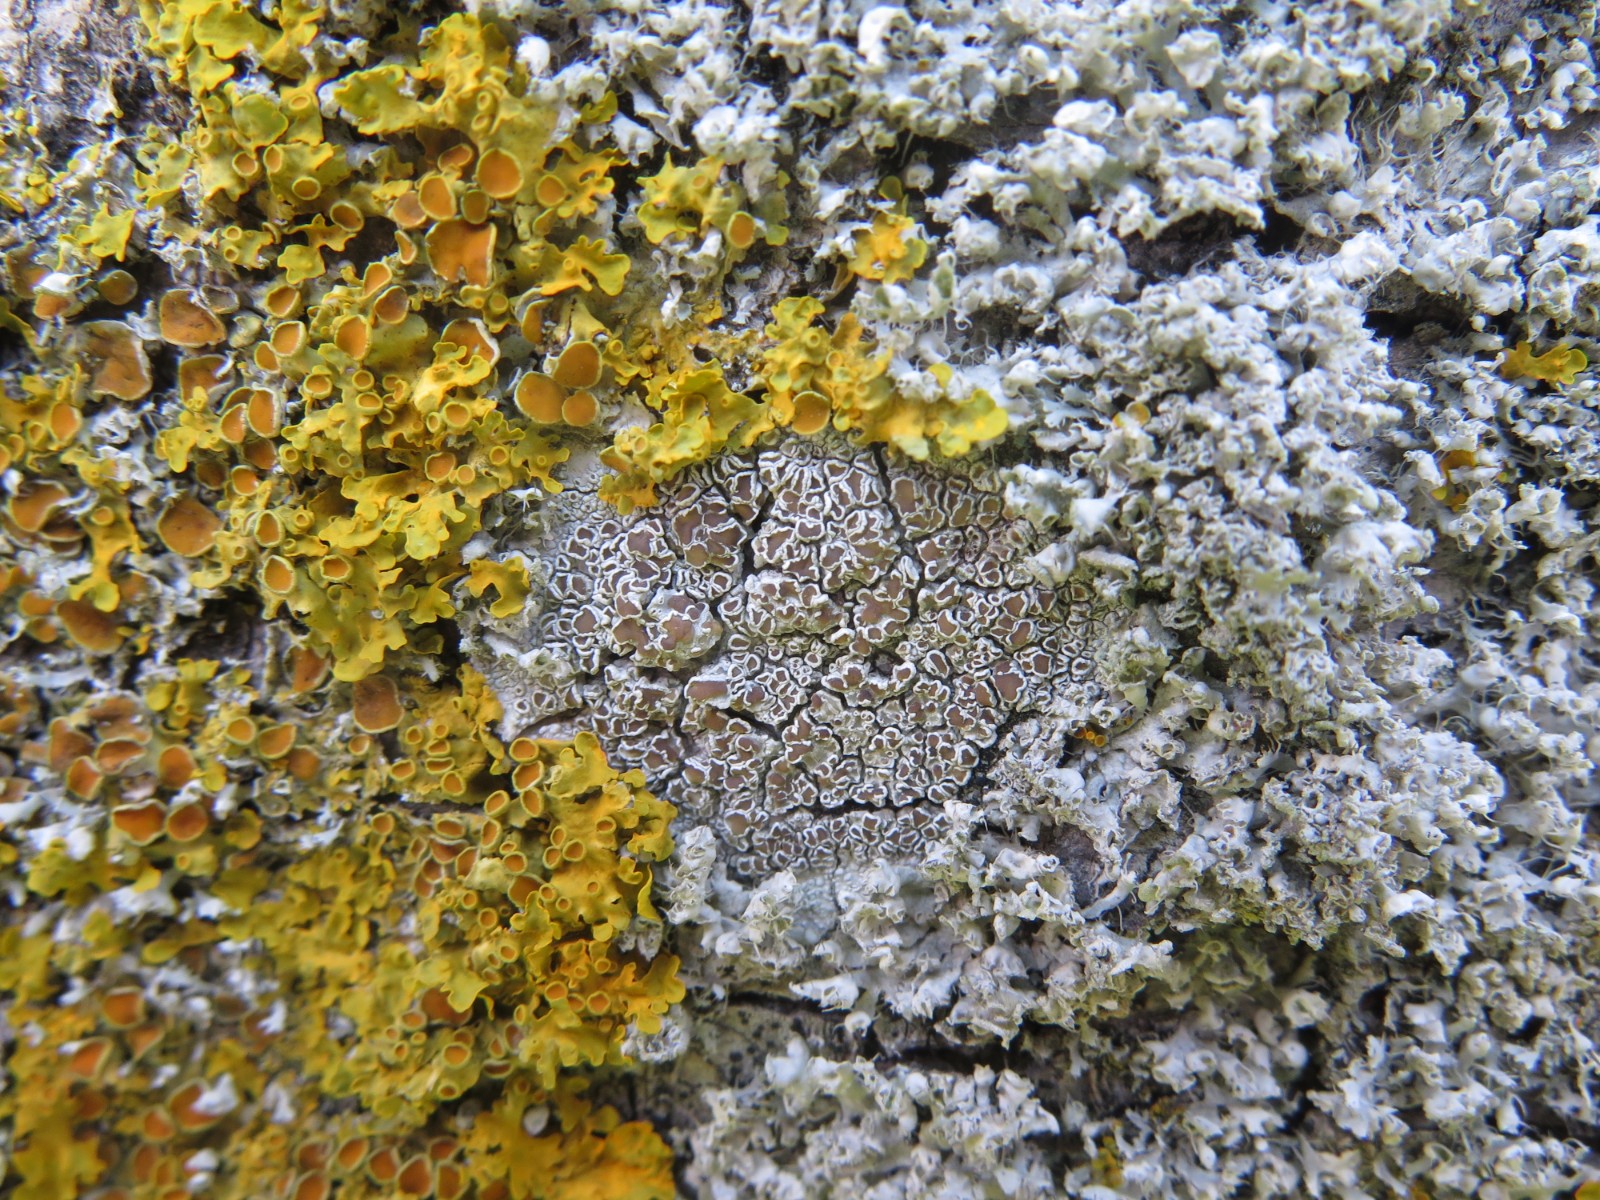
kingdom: Fungi
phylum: Ascomycota
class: Lecanoromycetes
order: Lecanorales
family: Lecanoraceae
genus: Lecanora
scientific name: Lecanora chlarotera
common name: brun kantskivelav
